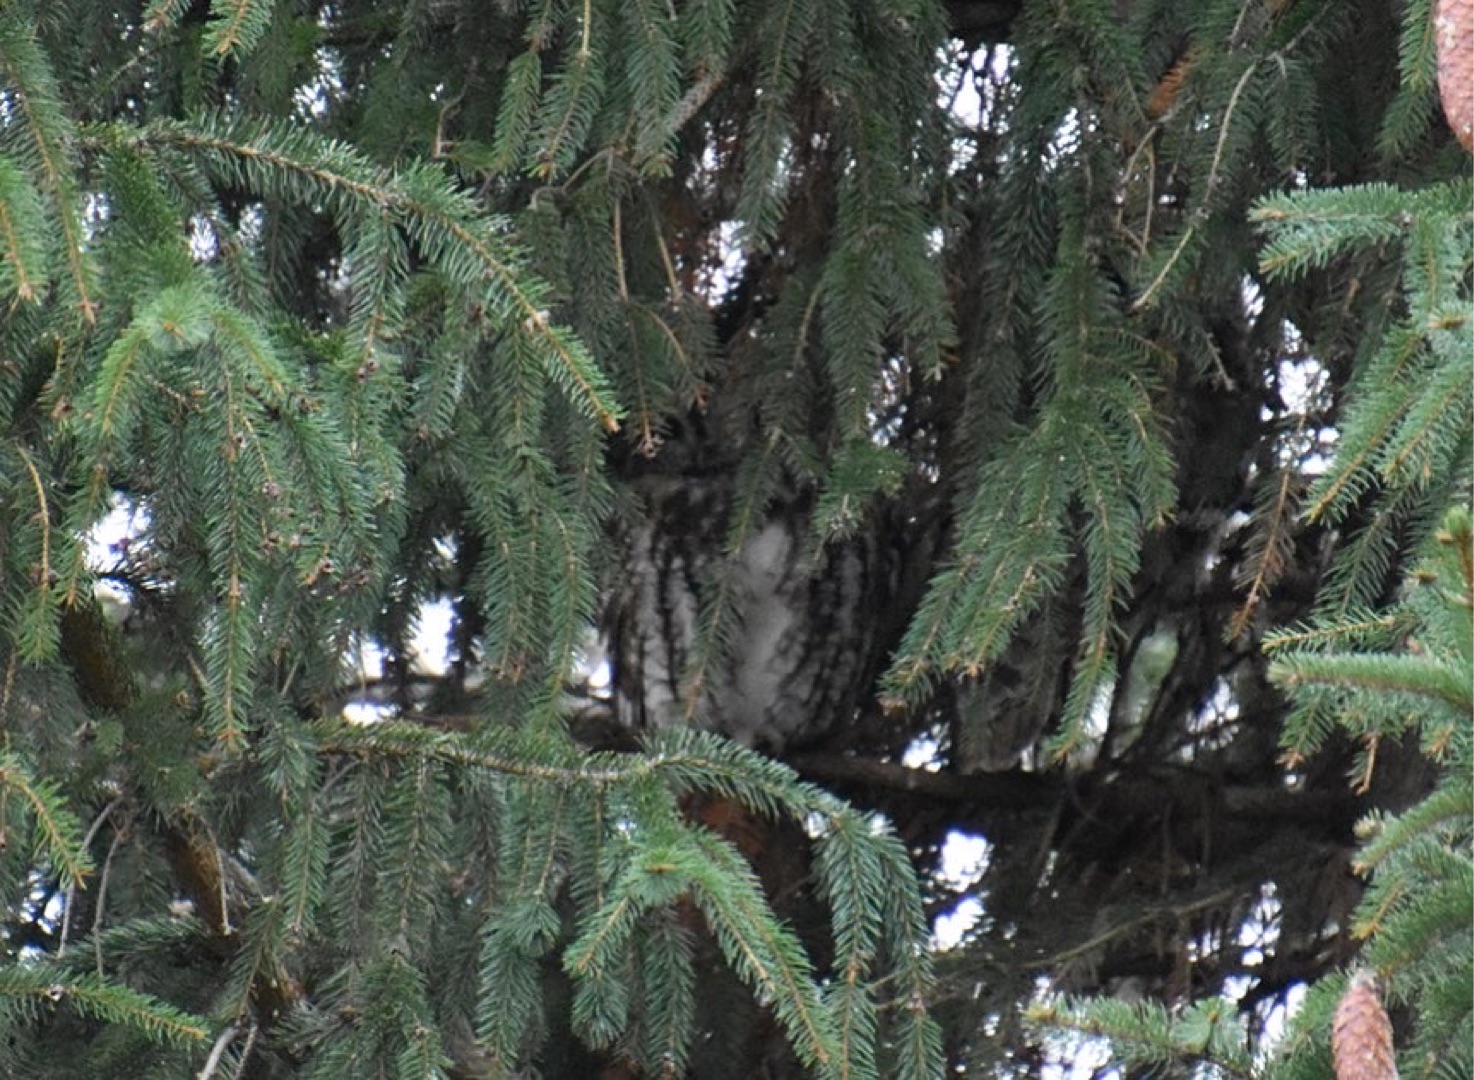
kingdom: Animalia
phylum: Chordata
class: Aves
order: Strigiformes
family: Strigidae
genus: Strix
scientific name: Strix aluco
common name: Natugle
